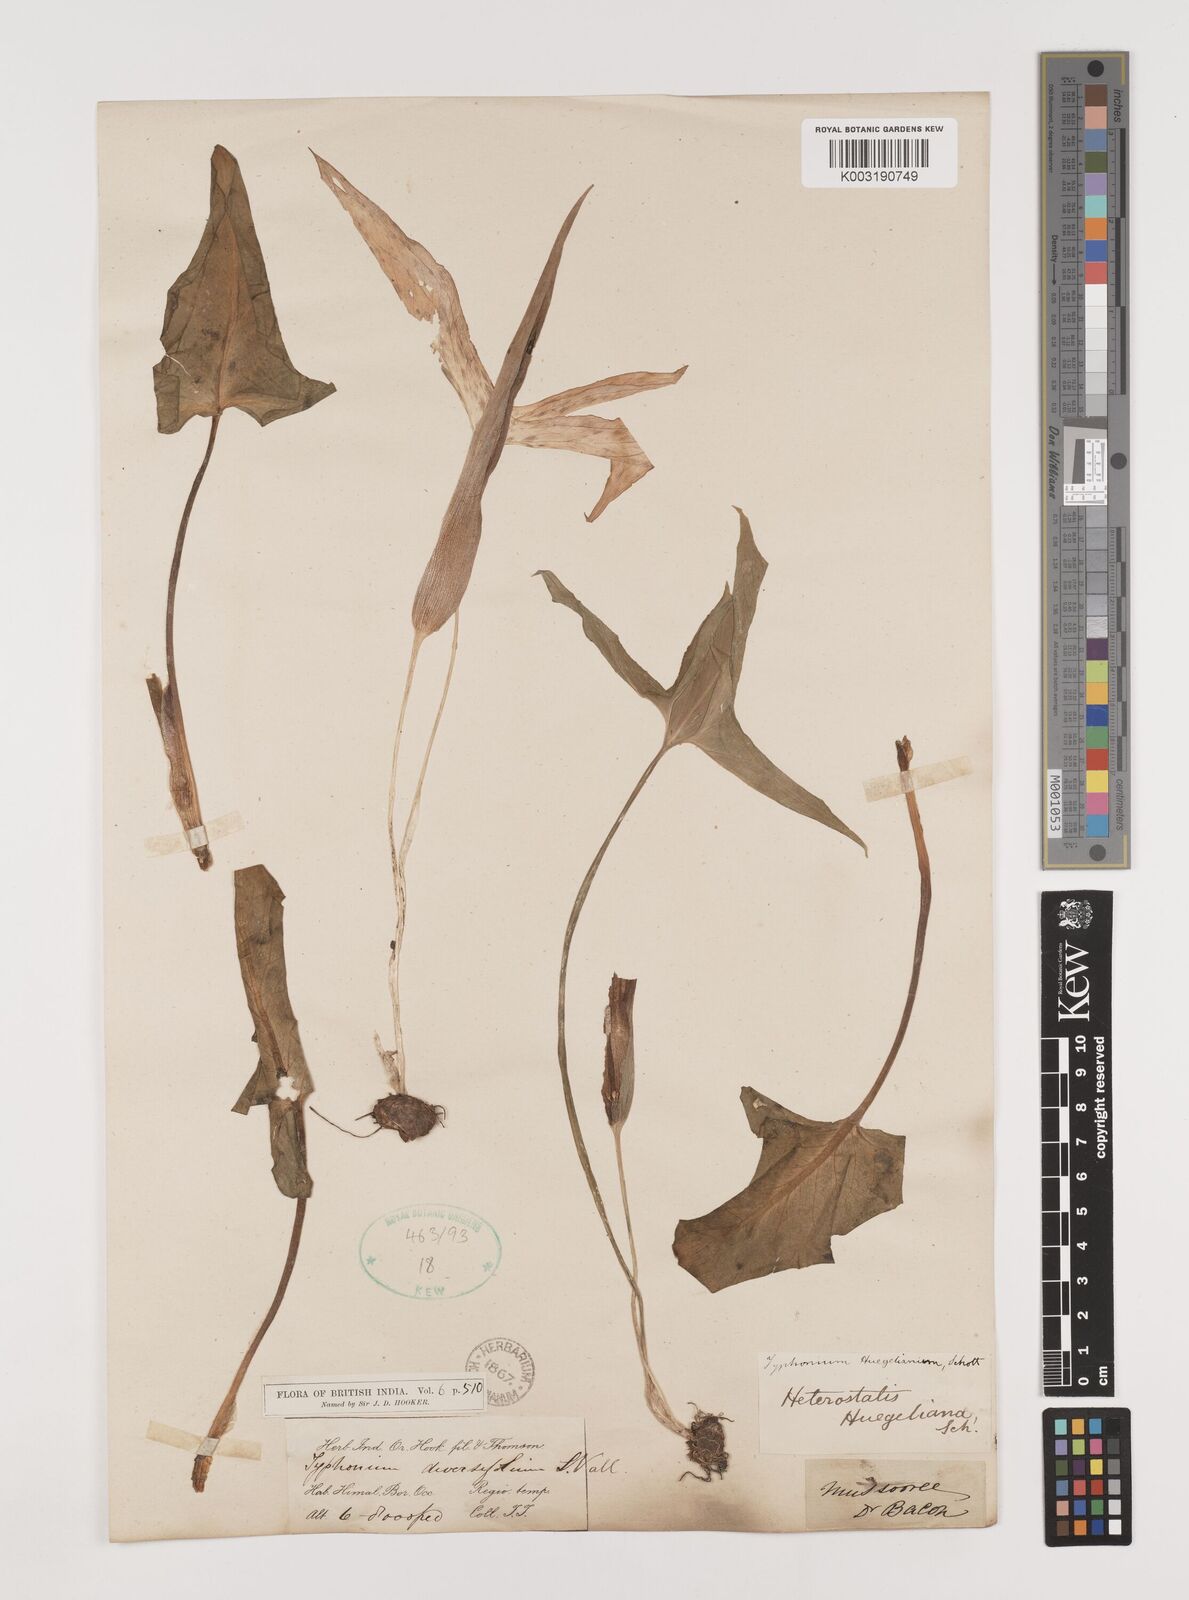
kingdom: Plantae
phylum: Tracheophyta
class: Liliopsida
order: Alismatales
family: Araceae
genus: Sauromatum
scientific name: Sauromatum diversifolium
